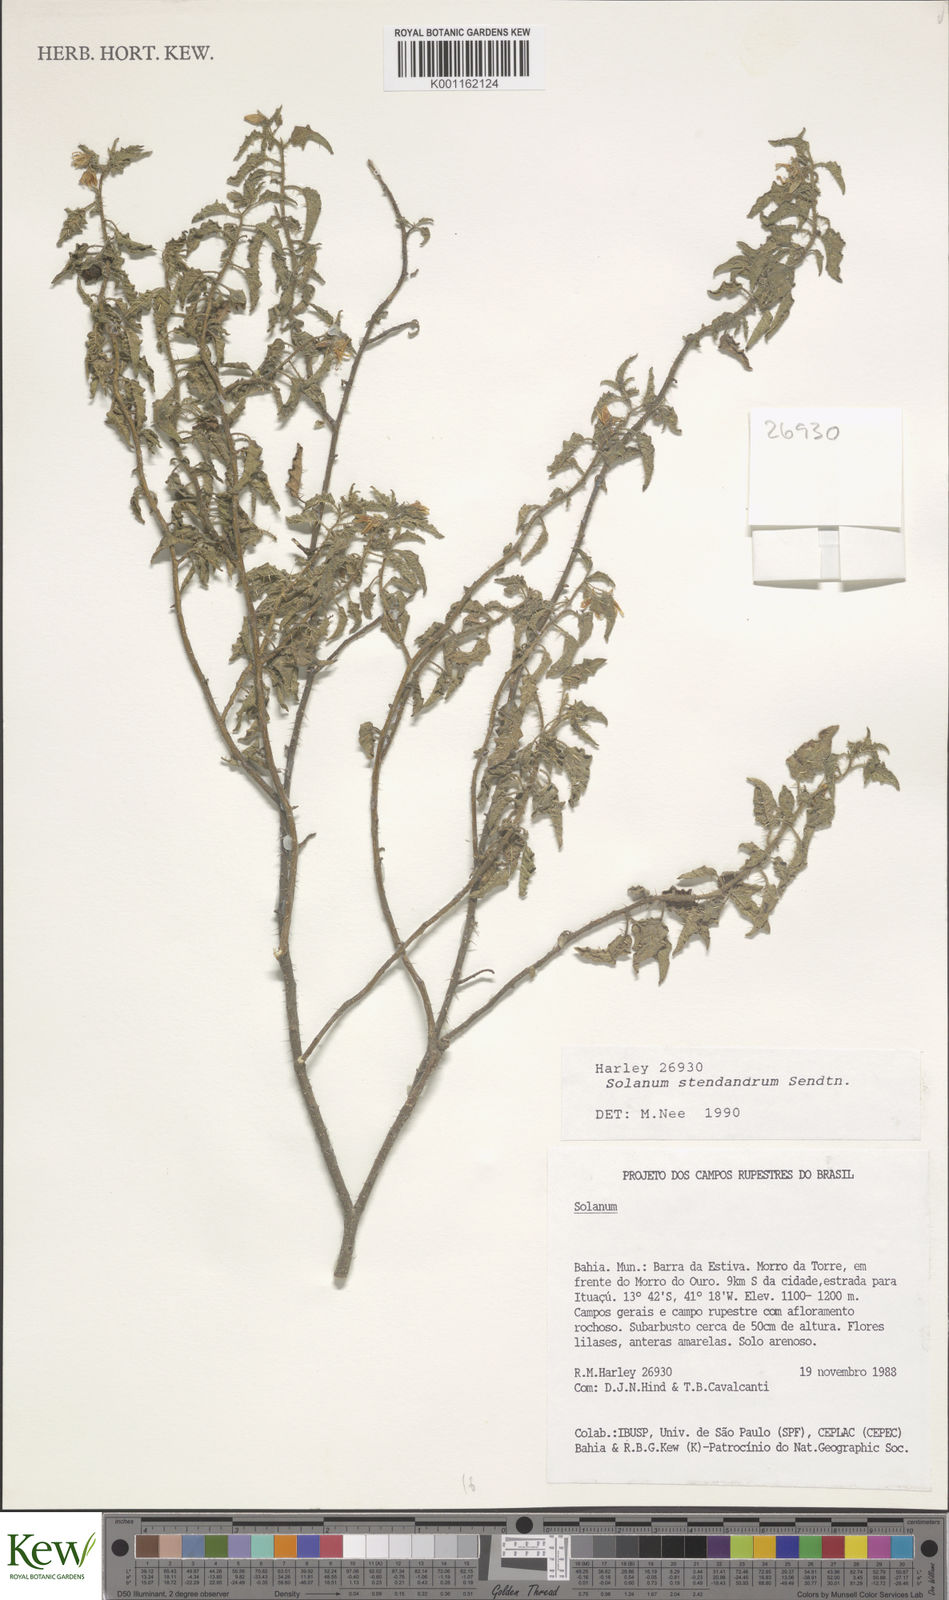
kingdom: Plantae
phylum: Tracheophyta
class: Magnoliopsida
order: Solanales
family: Solanaceae
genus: Solanum
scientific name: Solanum stenandrum
